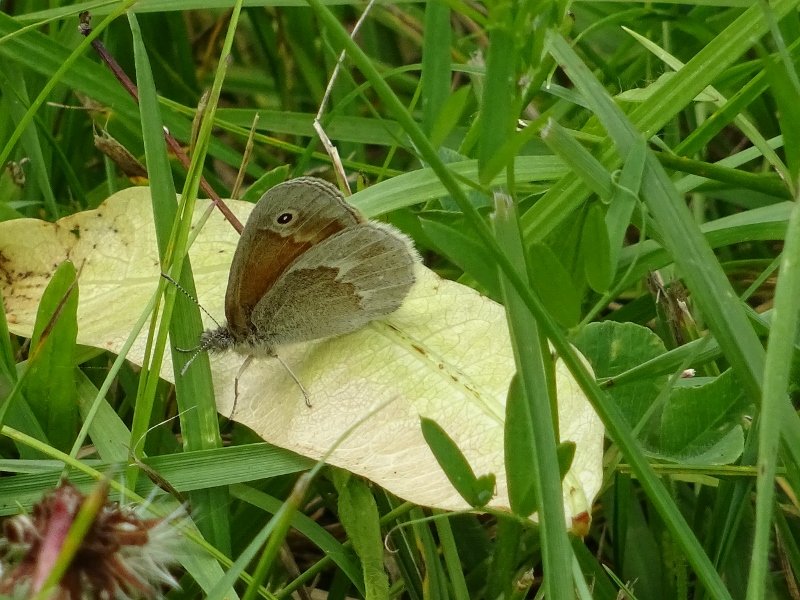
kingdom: Animalia
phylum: Arthropoda
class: Insecta
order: Lepidoptera
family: Nymphalidae
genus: Coenonympha
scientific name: Coenonympha tullia
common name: Large Heath
